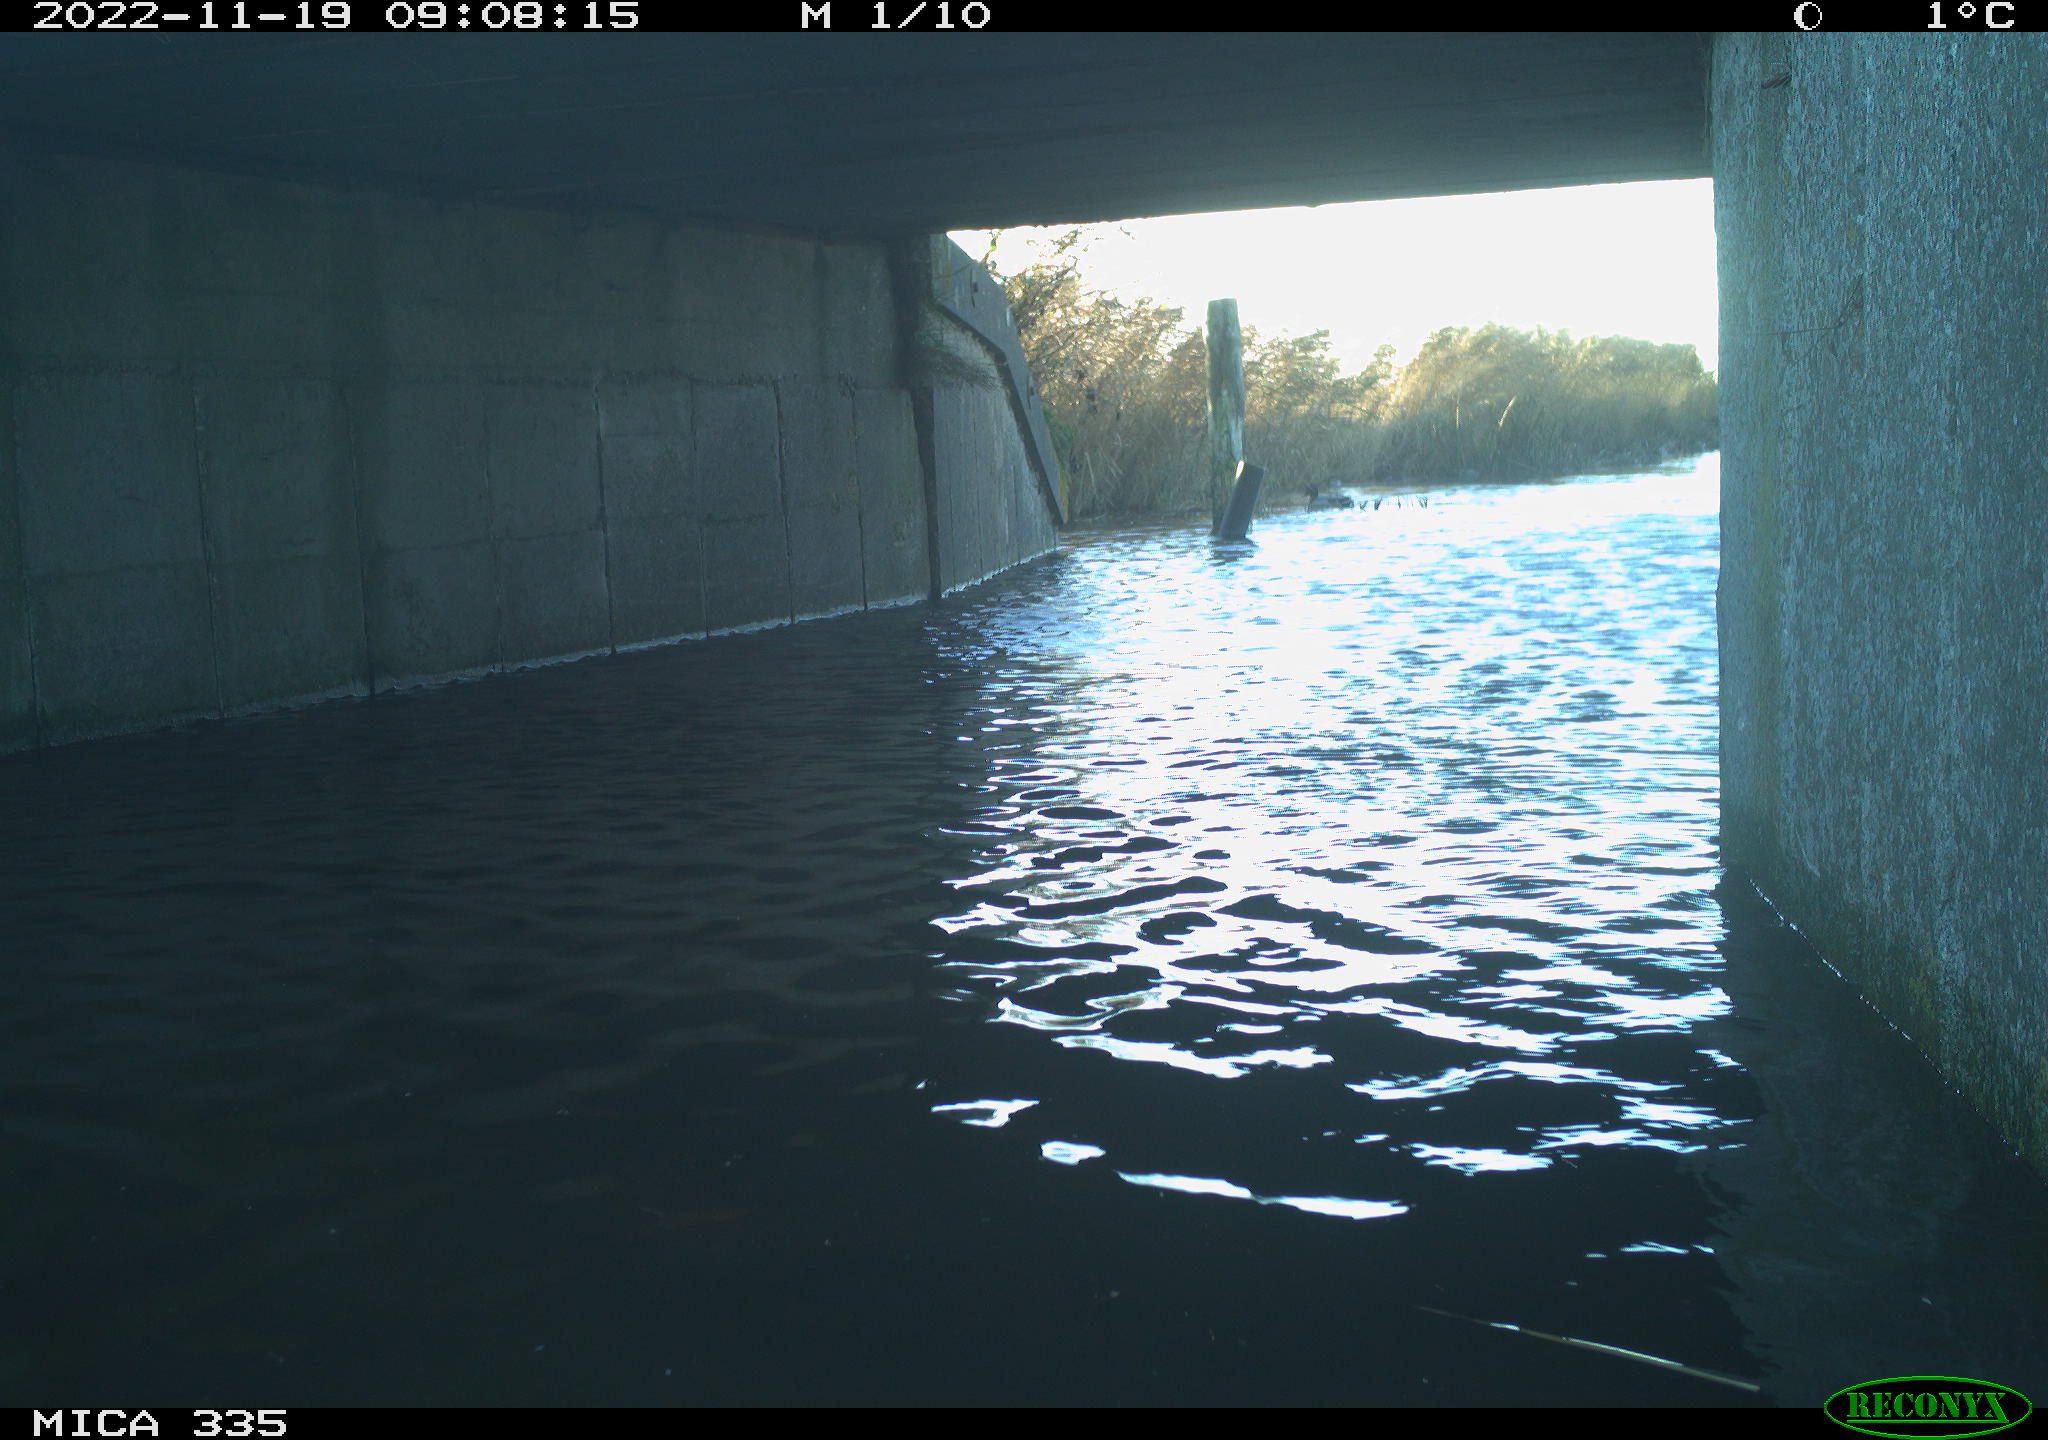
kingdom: Animalia
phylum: Chordata
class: Aves
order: Anseriformes
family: Anatidae
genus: Anas
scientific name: Anas
